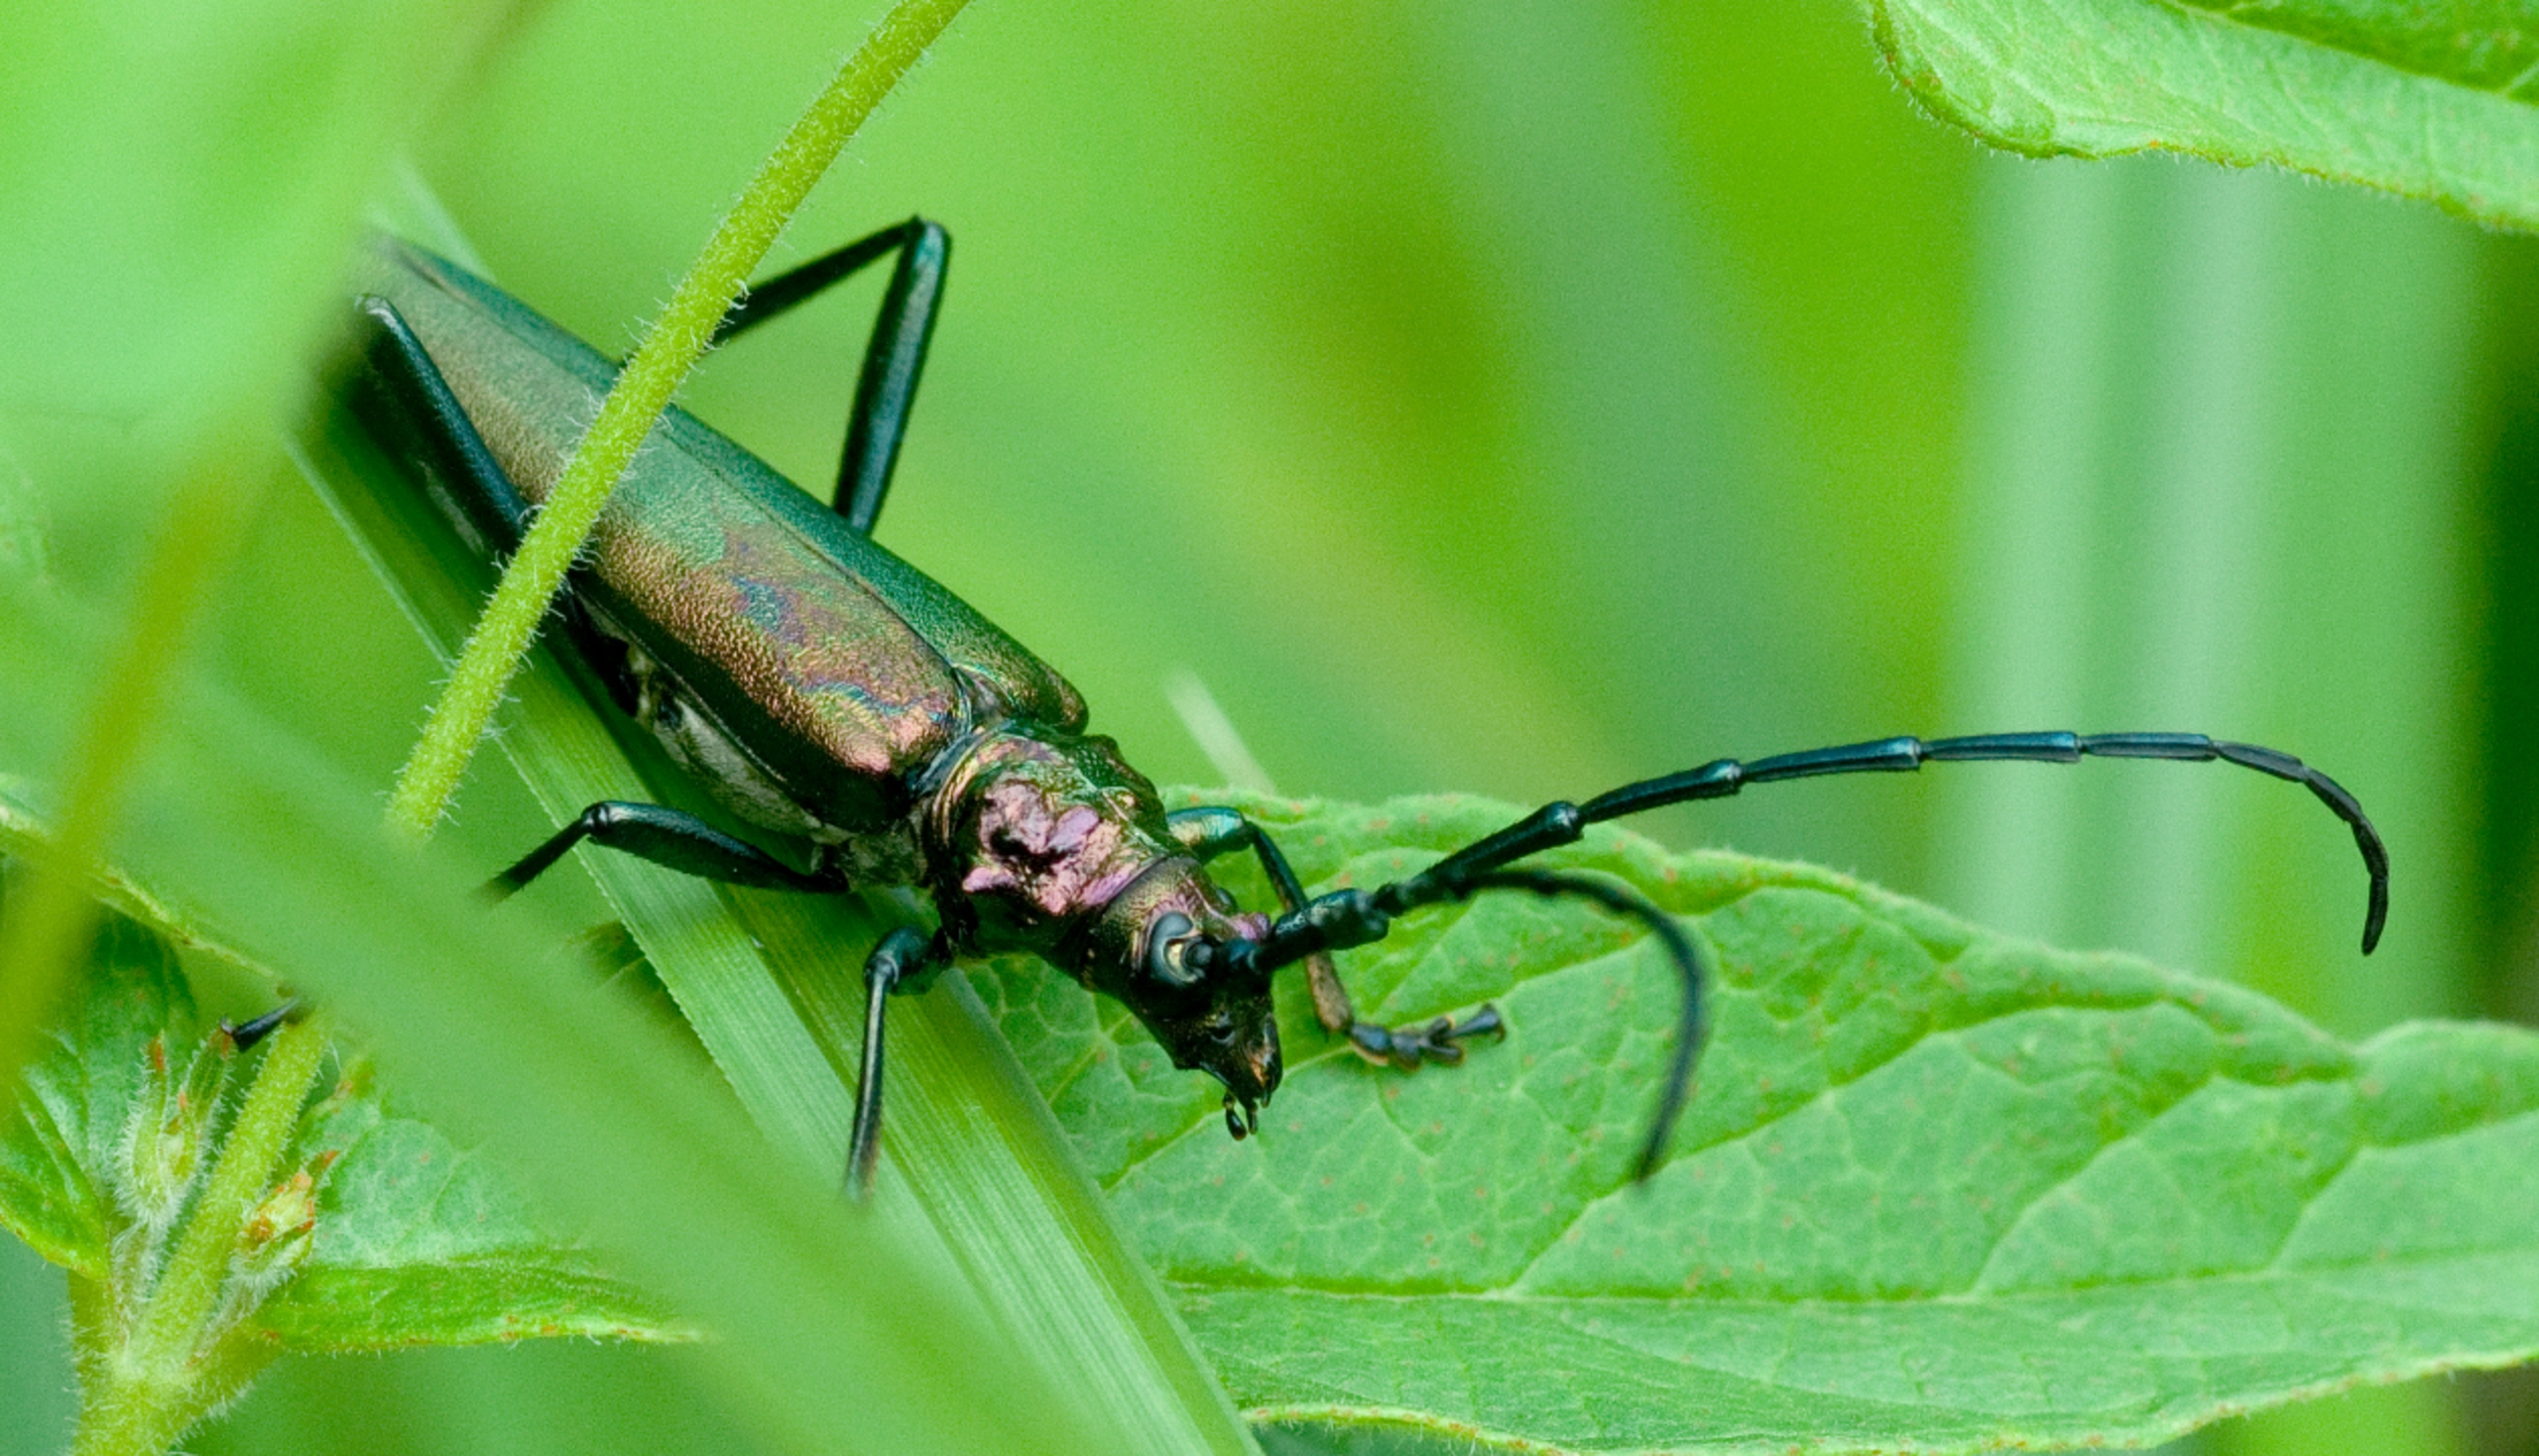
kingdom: Animalia
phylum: Arthropoda
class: Insecta
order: Coleoptera
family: Cerambycidae
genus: Aromia
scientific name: Aromia moschata
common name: Moskusbuk
